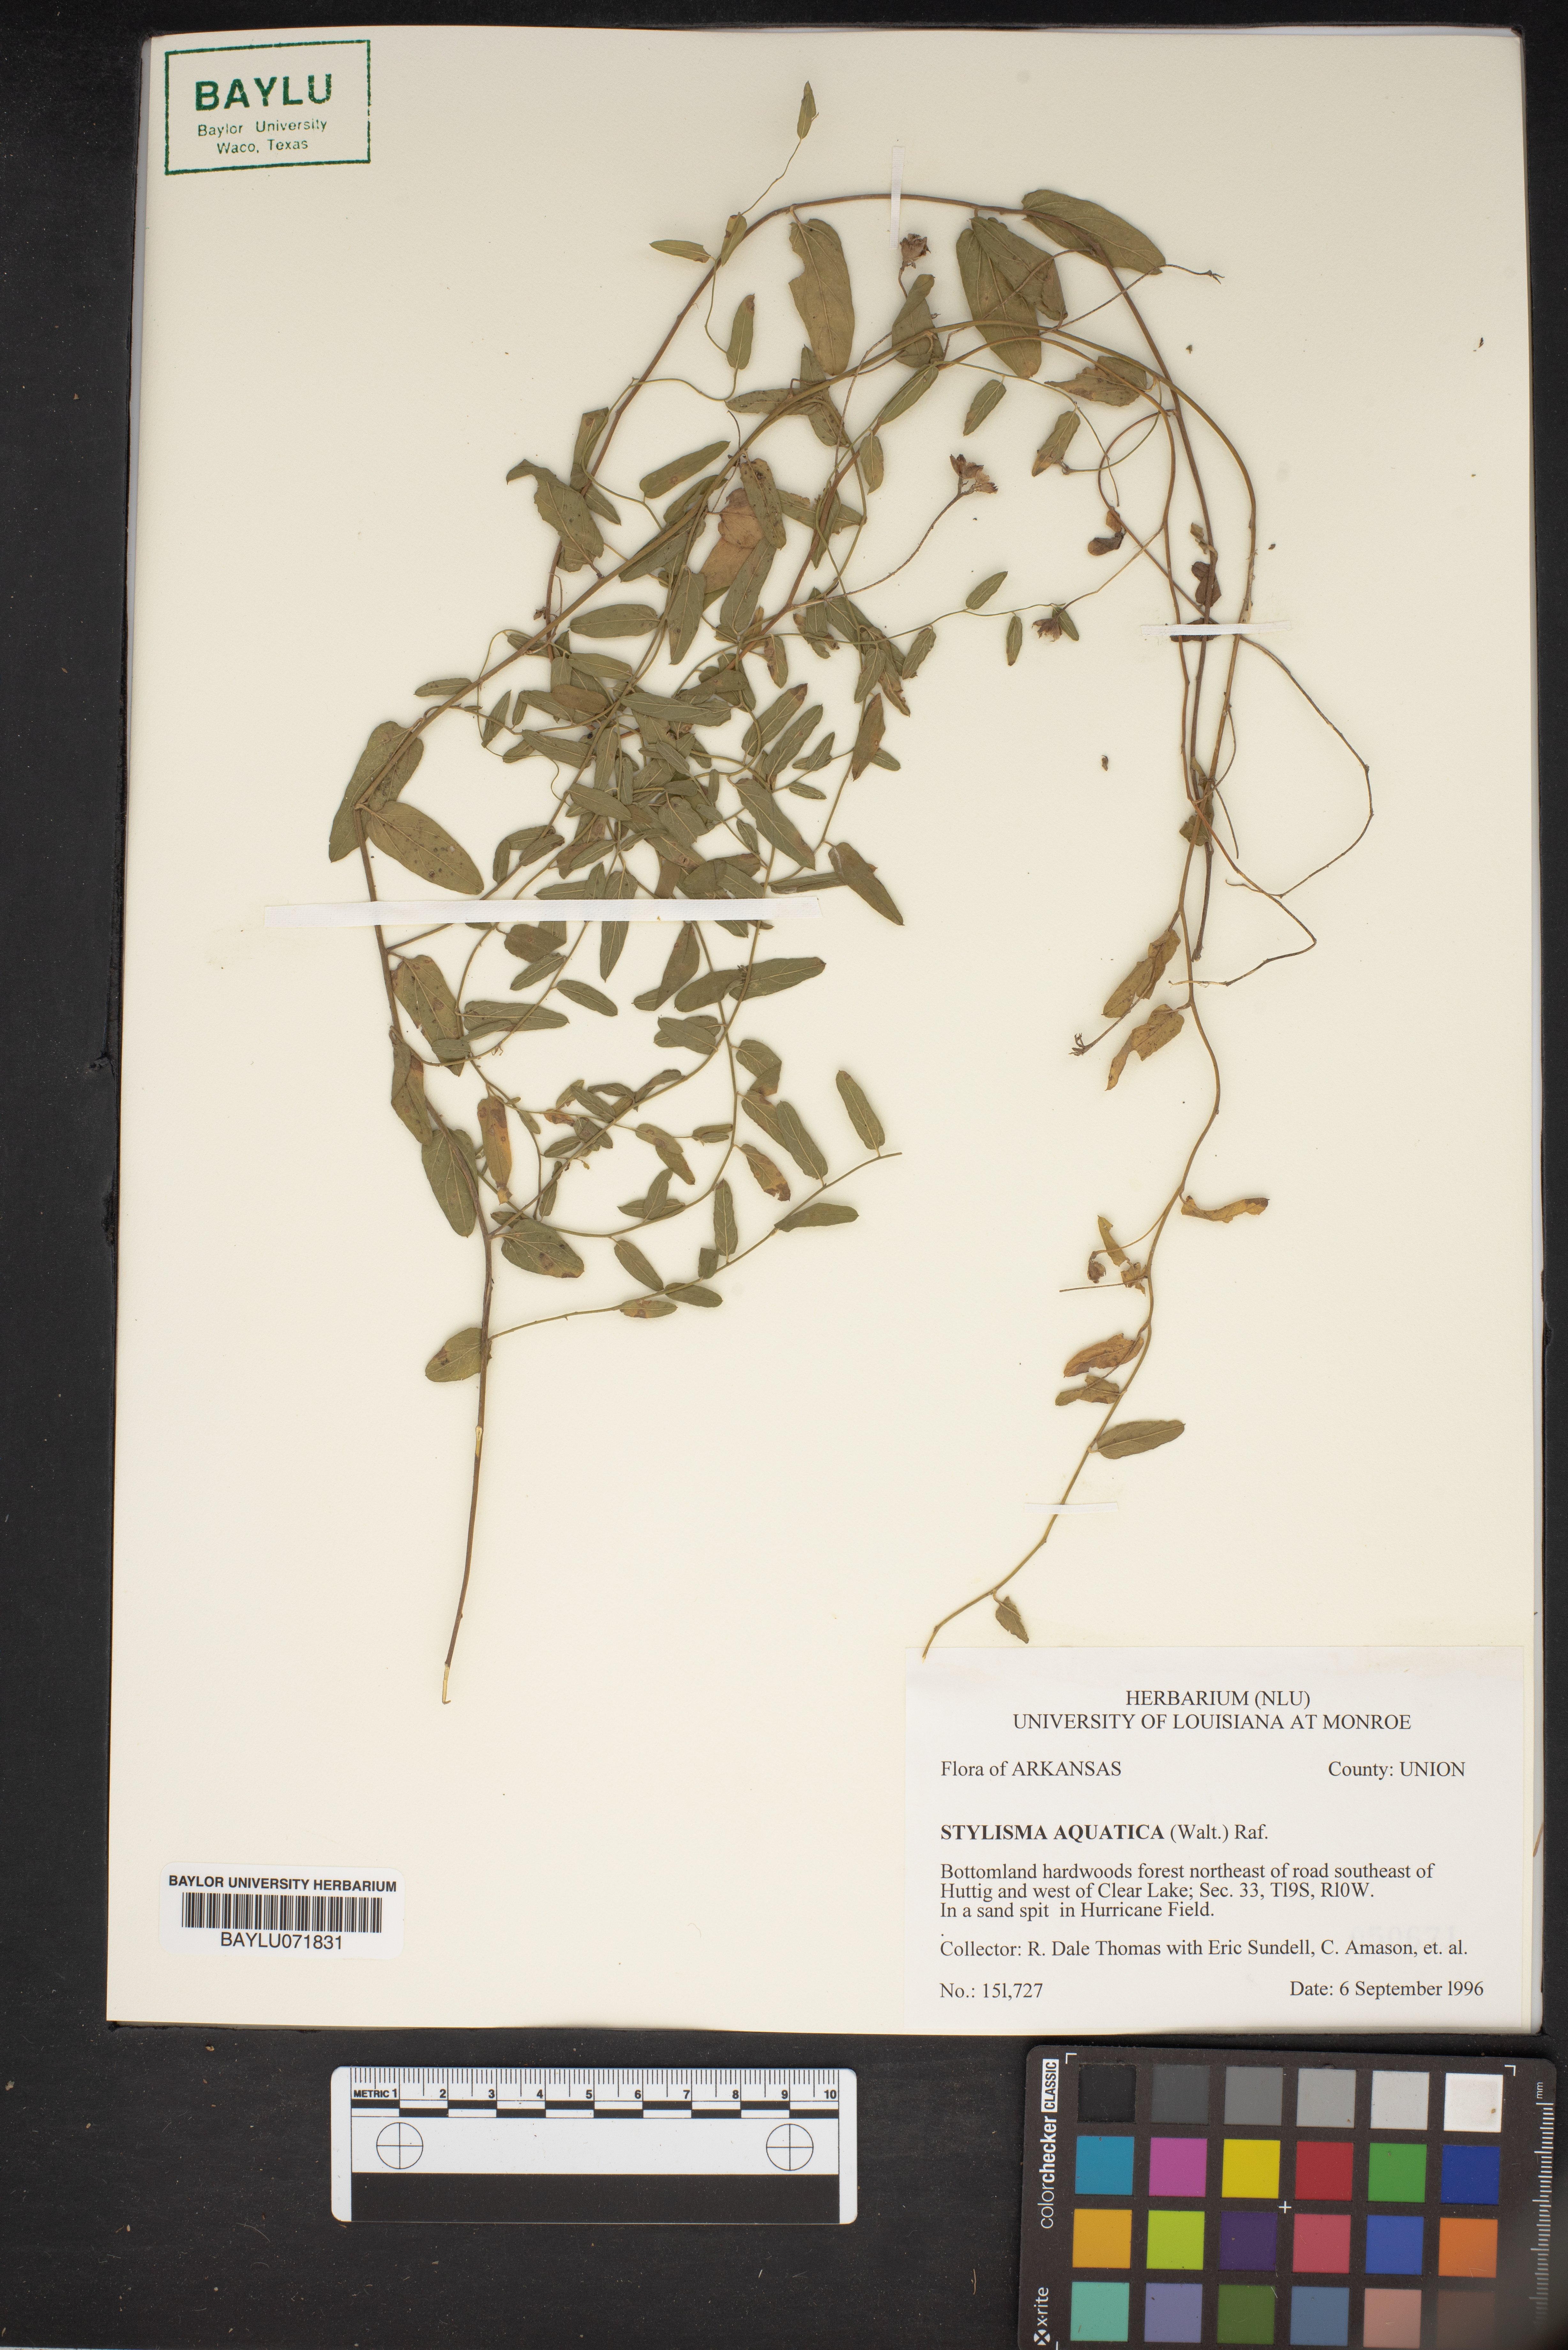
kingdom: Plantae
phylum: Tracheophyta
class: Magnoliopsida
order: Solanales
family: Convolvulaceae
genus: Stylisma
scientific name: Stylisma aquatica
